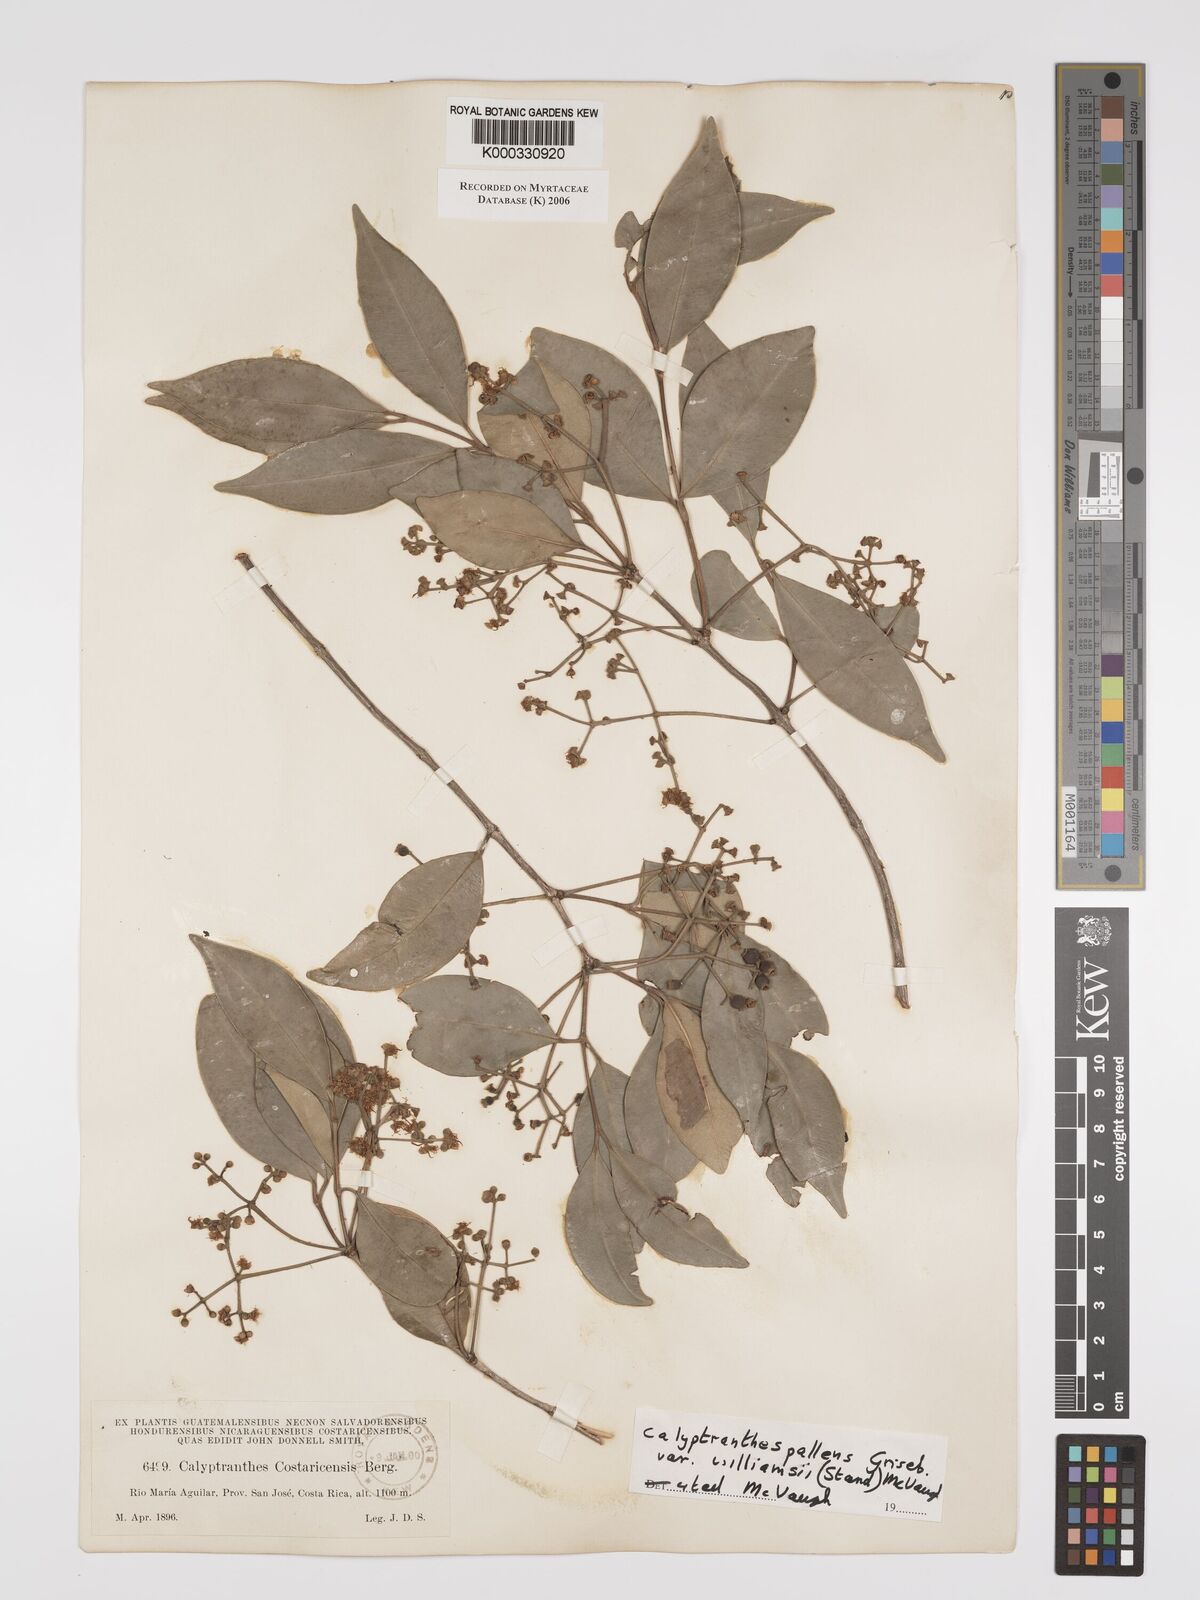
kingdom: Plantae
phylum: Tracheophyta
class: Magnoliopsida
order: Myrtales
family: Myrtaceae
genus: Myrcia
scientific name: Myrcia neopallens
